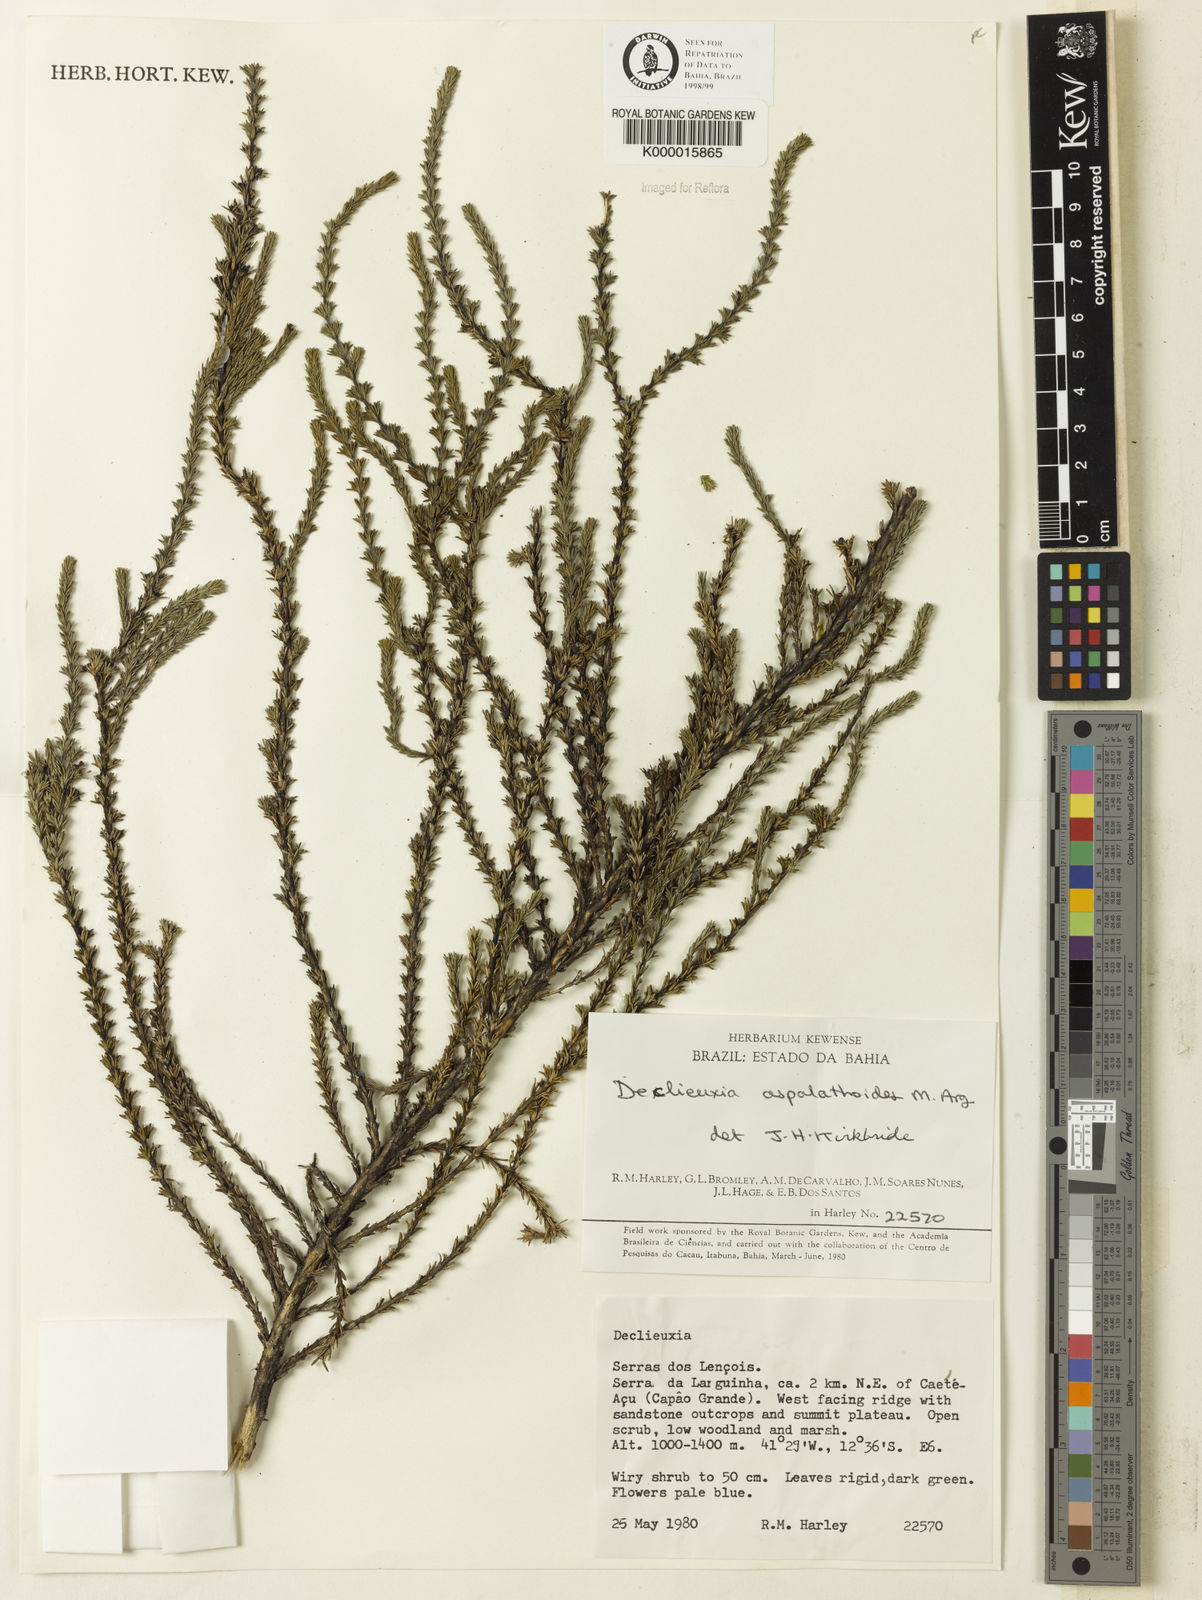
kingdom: Plantae
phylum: Tracheophyta
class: Magnoliopsida
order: Gentianales
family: Rubiaceae
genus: Declieuxia
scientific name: Declieuxia aspalathoides
